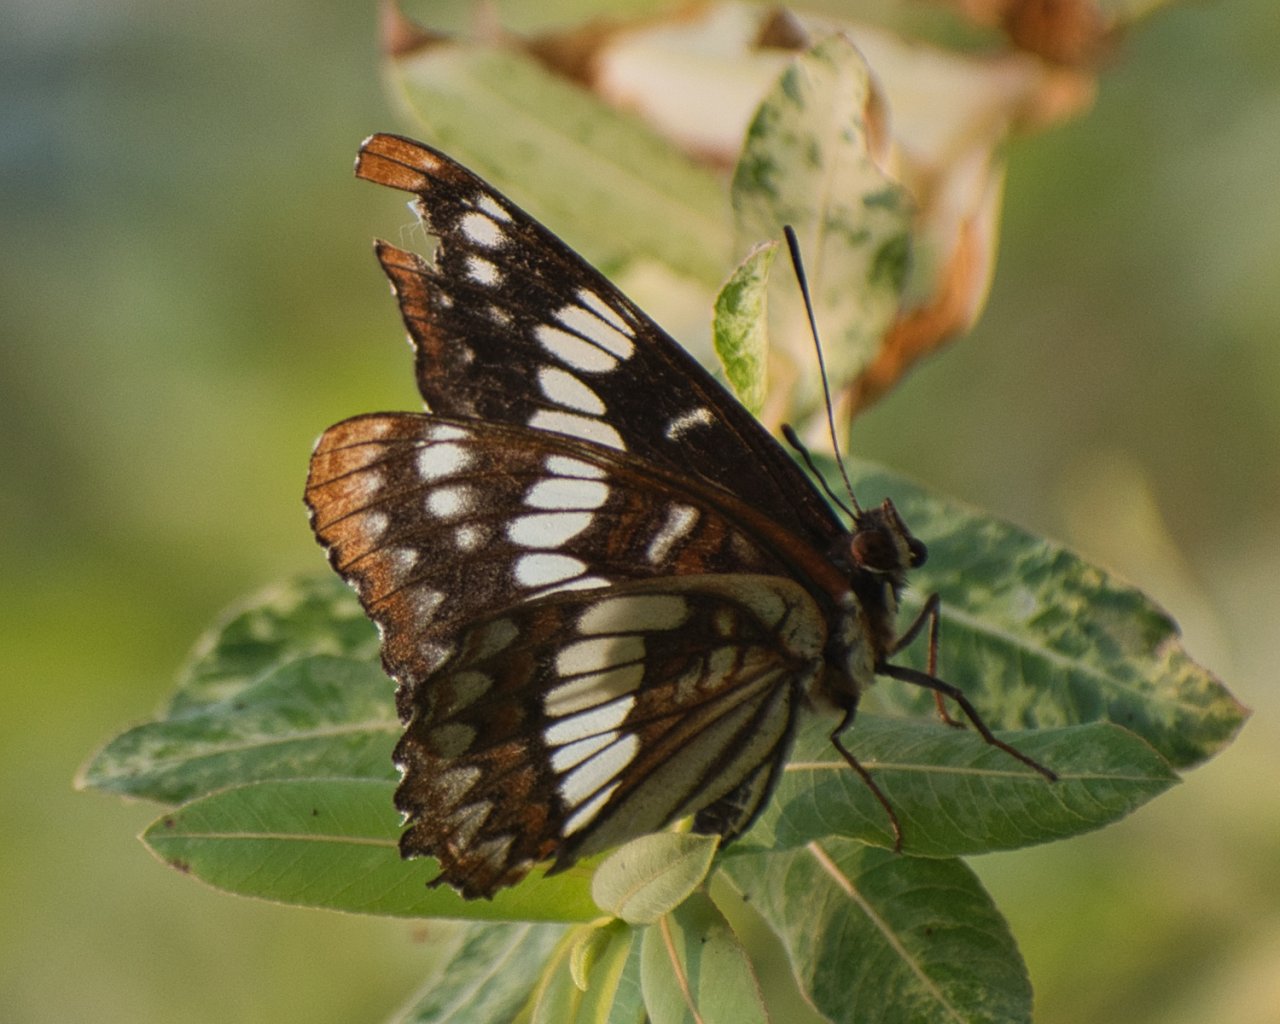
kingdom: Animalia
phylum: Arthropoda
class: Insecta
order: Lepidoptera
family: Nymphalidae
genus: Limenitis
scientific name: Limenitis lorquini
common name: Lorquin's Admiral
